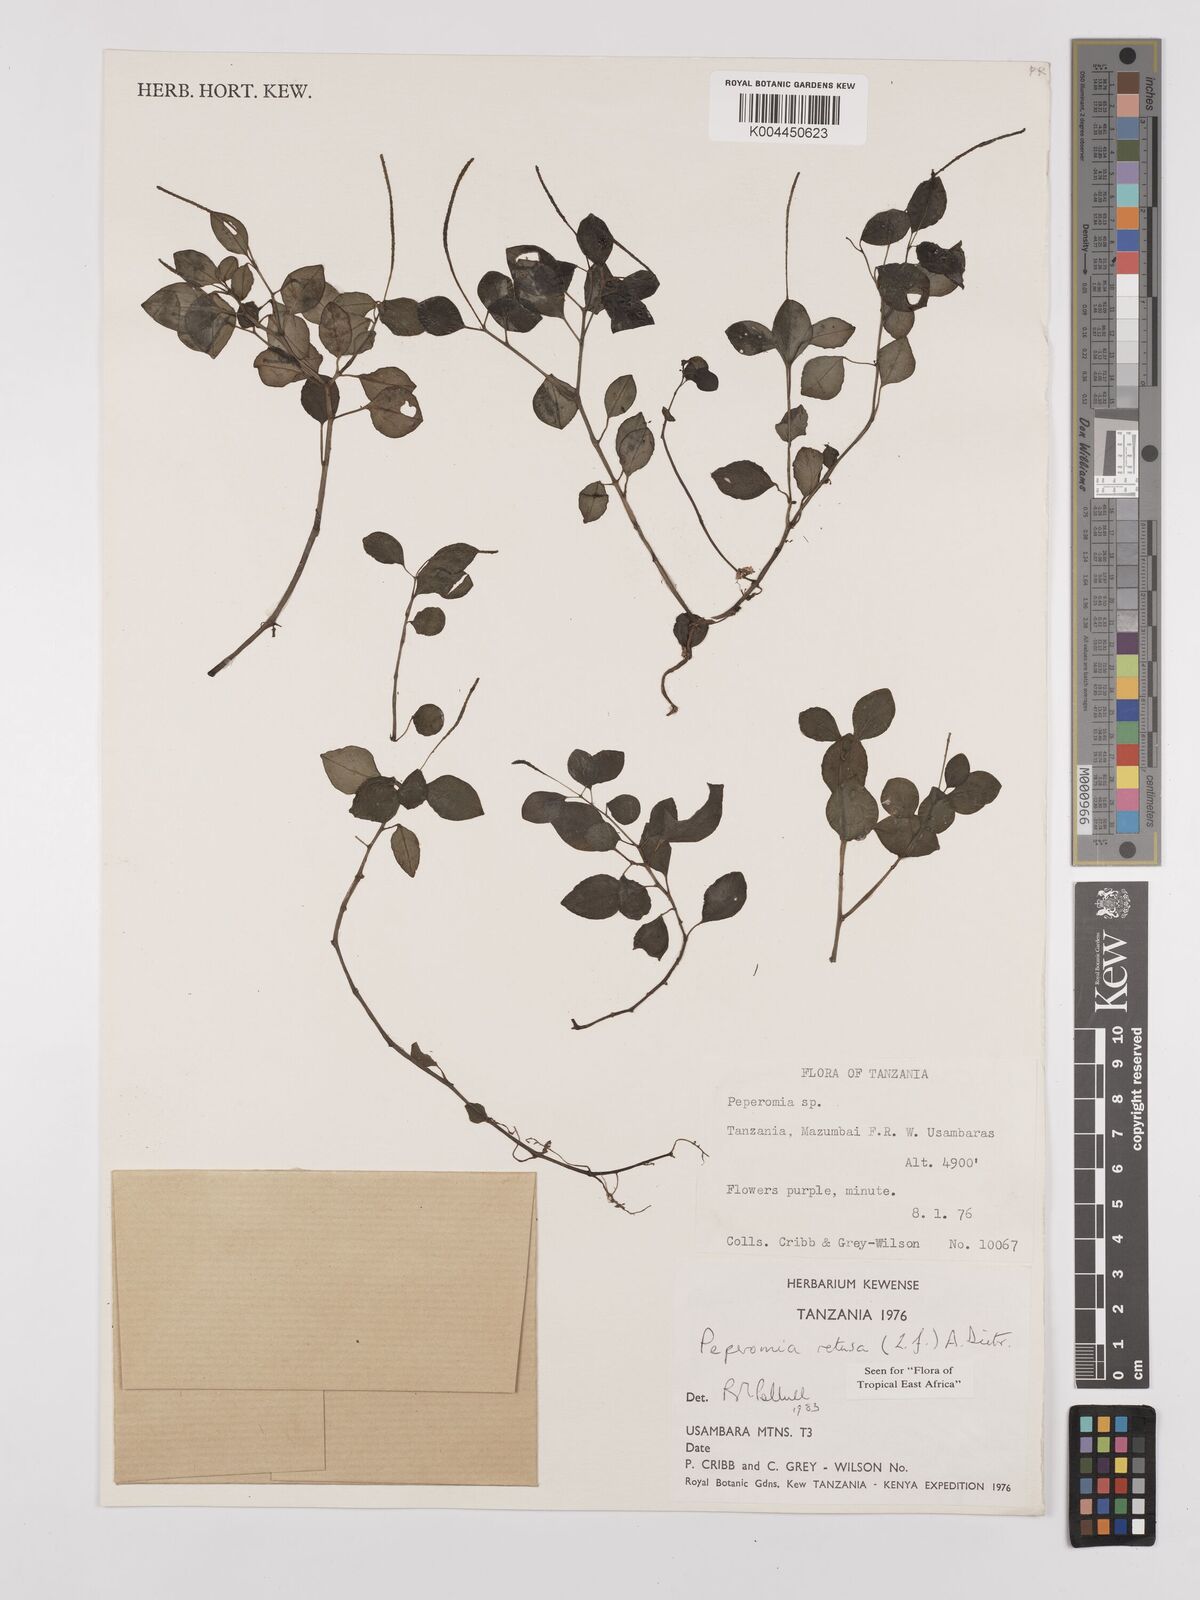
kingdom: Plantae
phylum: Tracheophyta
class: Magnoliopsida
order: Piperales
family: Piperaceae
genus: Peperomia
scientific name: Peperomia retusa
